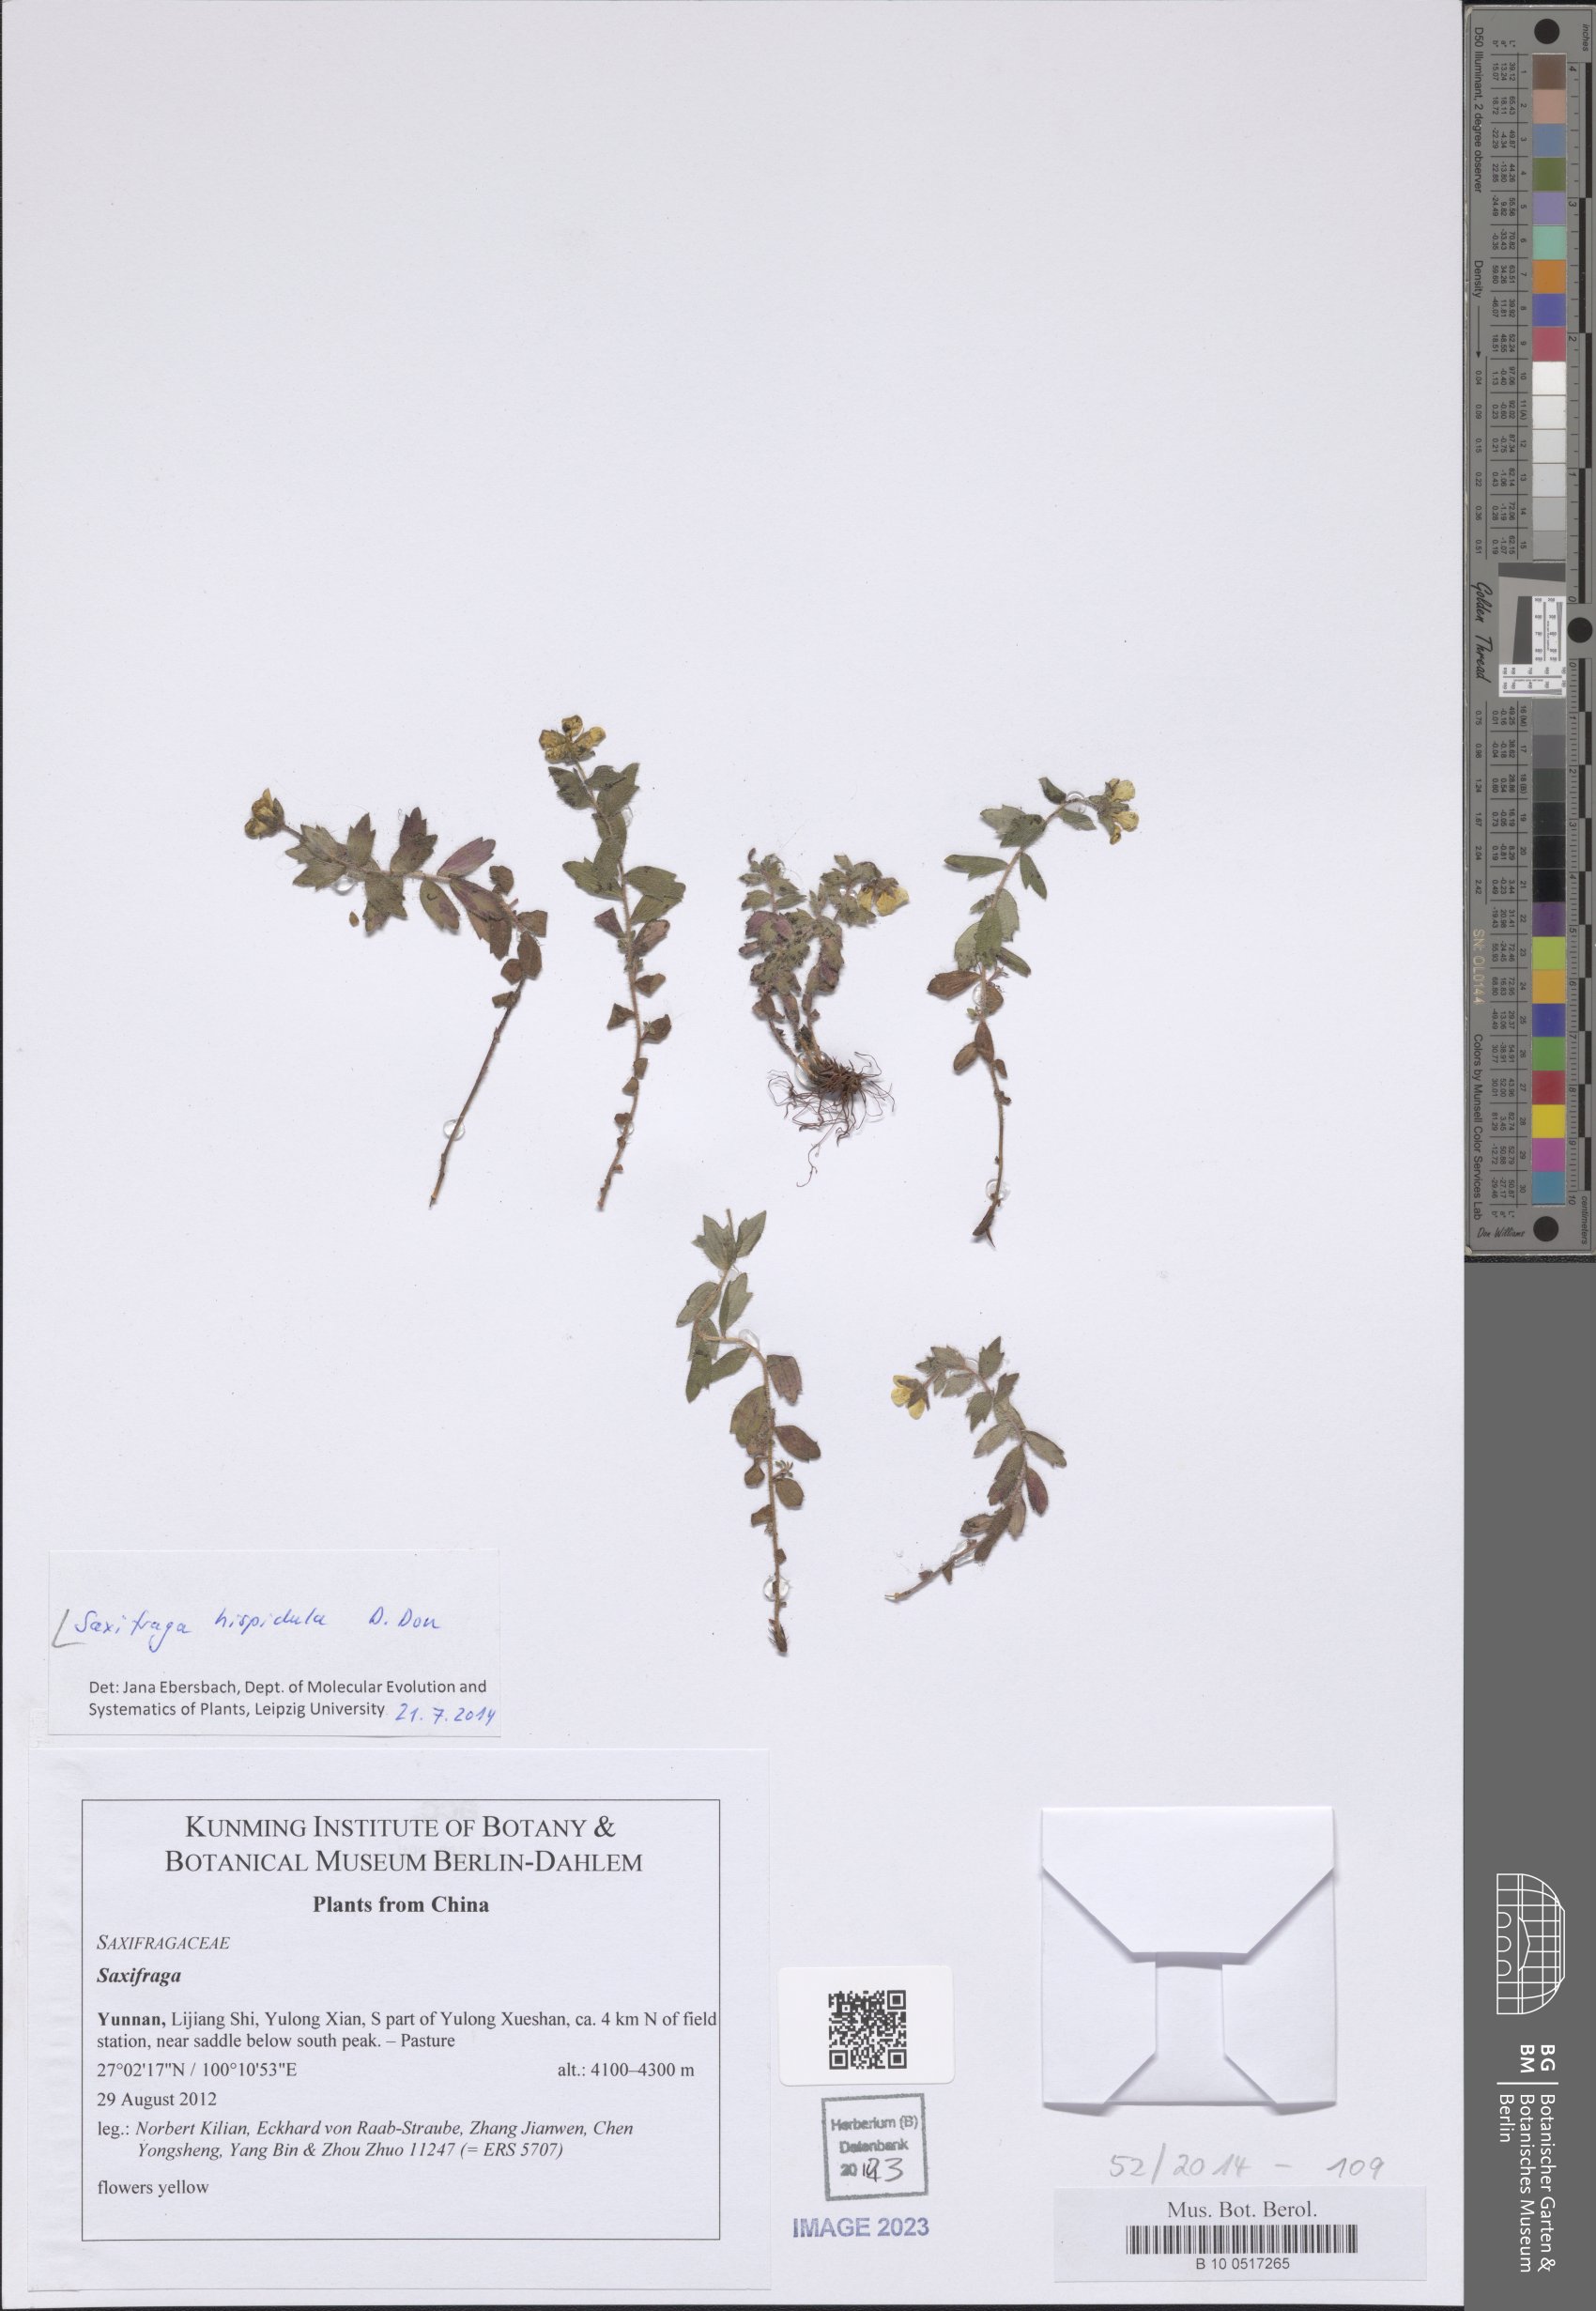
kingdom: Plantae
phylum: Tracheophyta
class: Magnoliopsida
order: Saxifragales
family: Saxifragaceae
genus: Saxifraga
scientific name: Saxifraga hispidula
